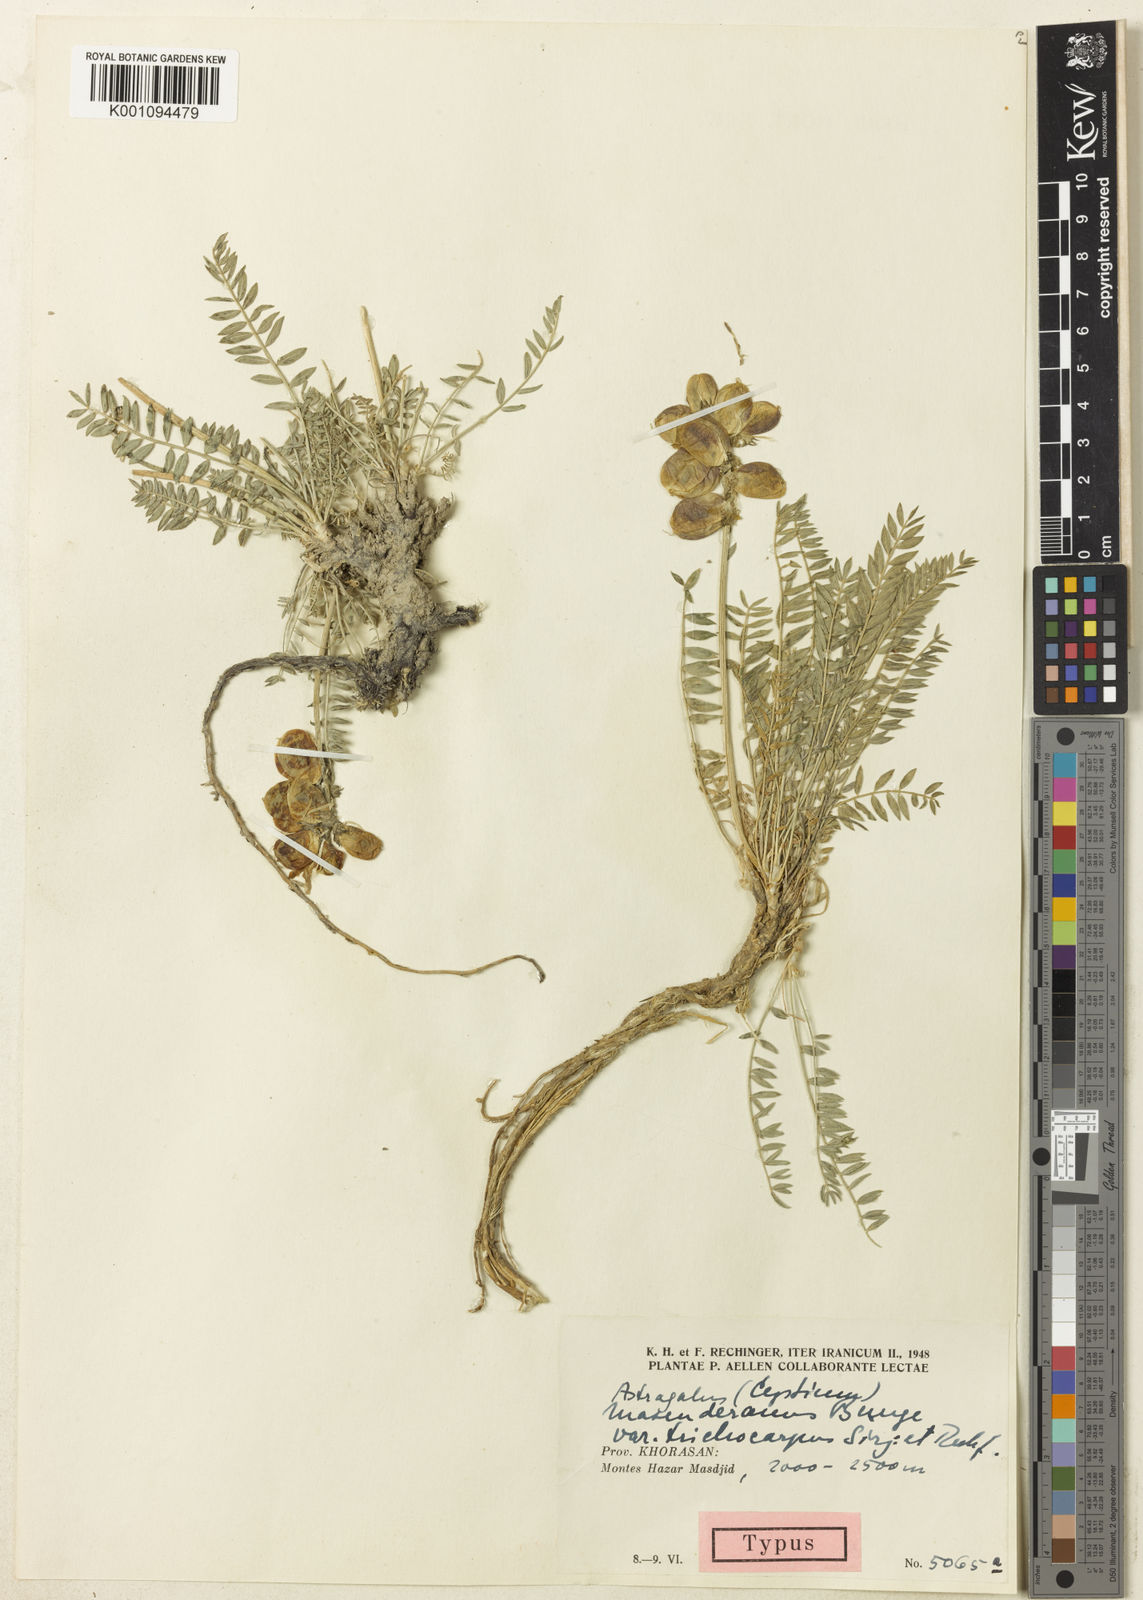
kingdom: Plantae
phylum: Tracheophyta
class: Magnoliopsida
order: Fabales
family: Fabaceae
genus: Astragalus
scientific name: Astragalus
